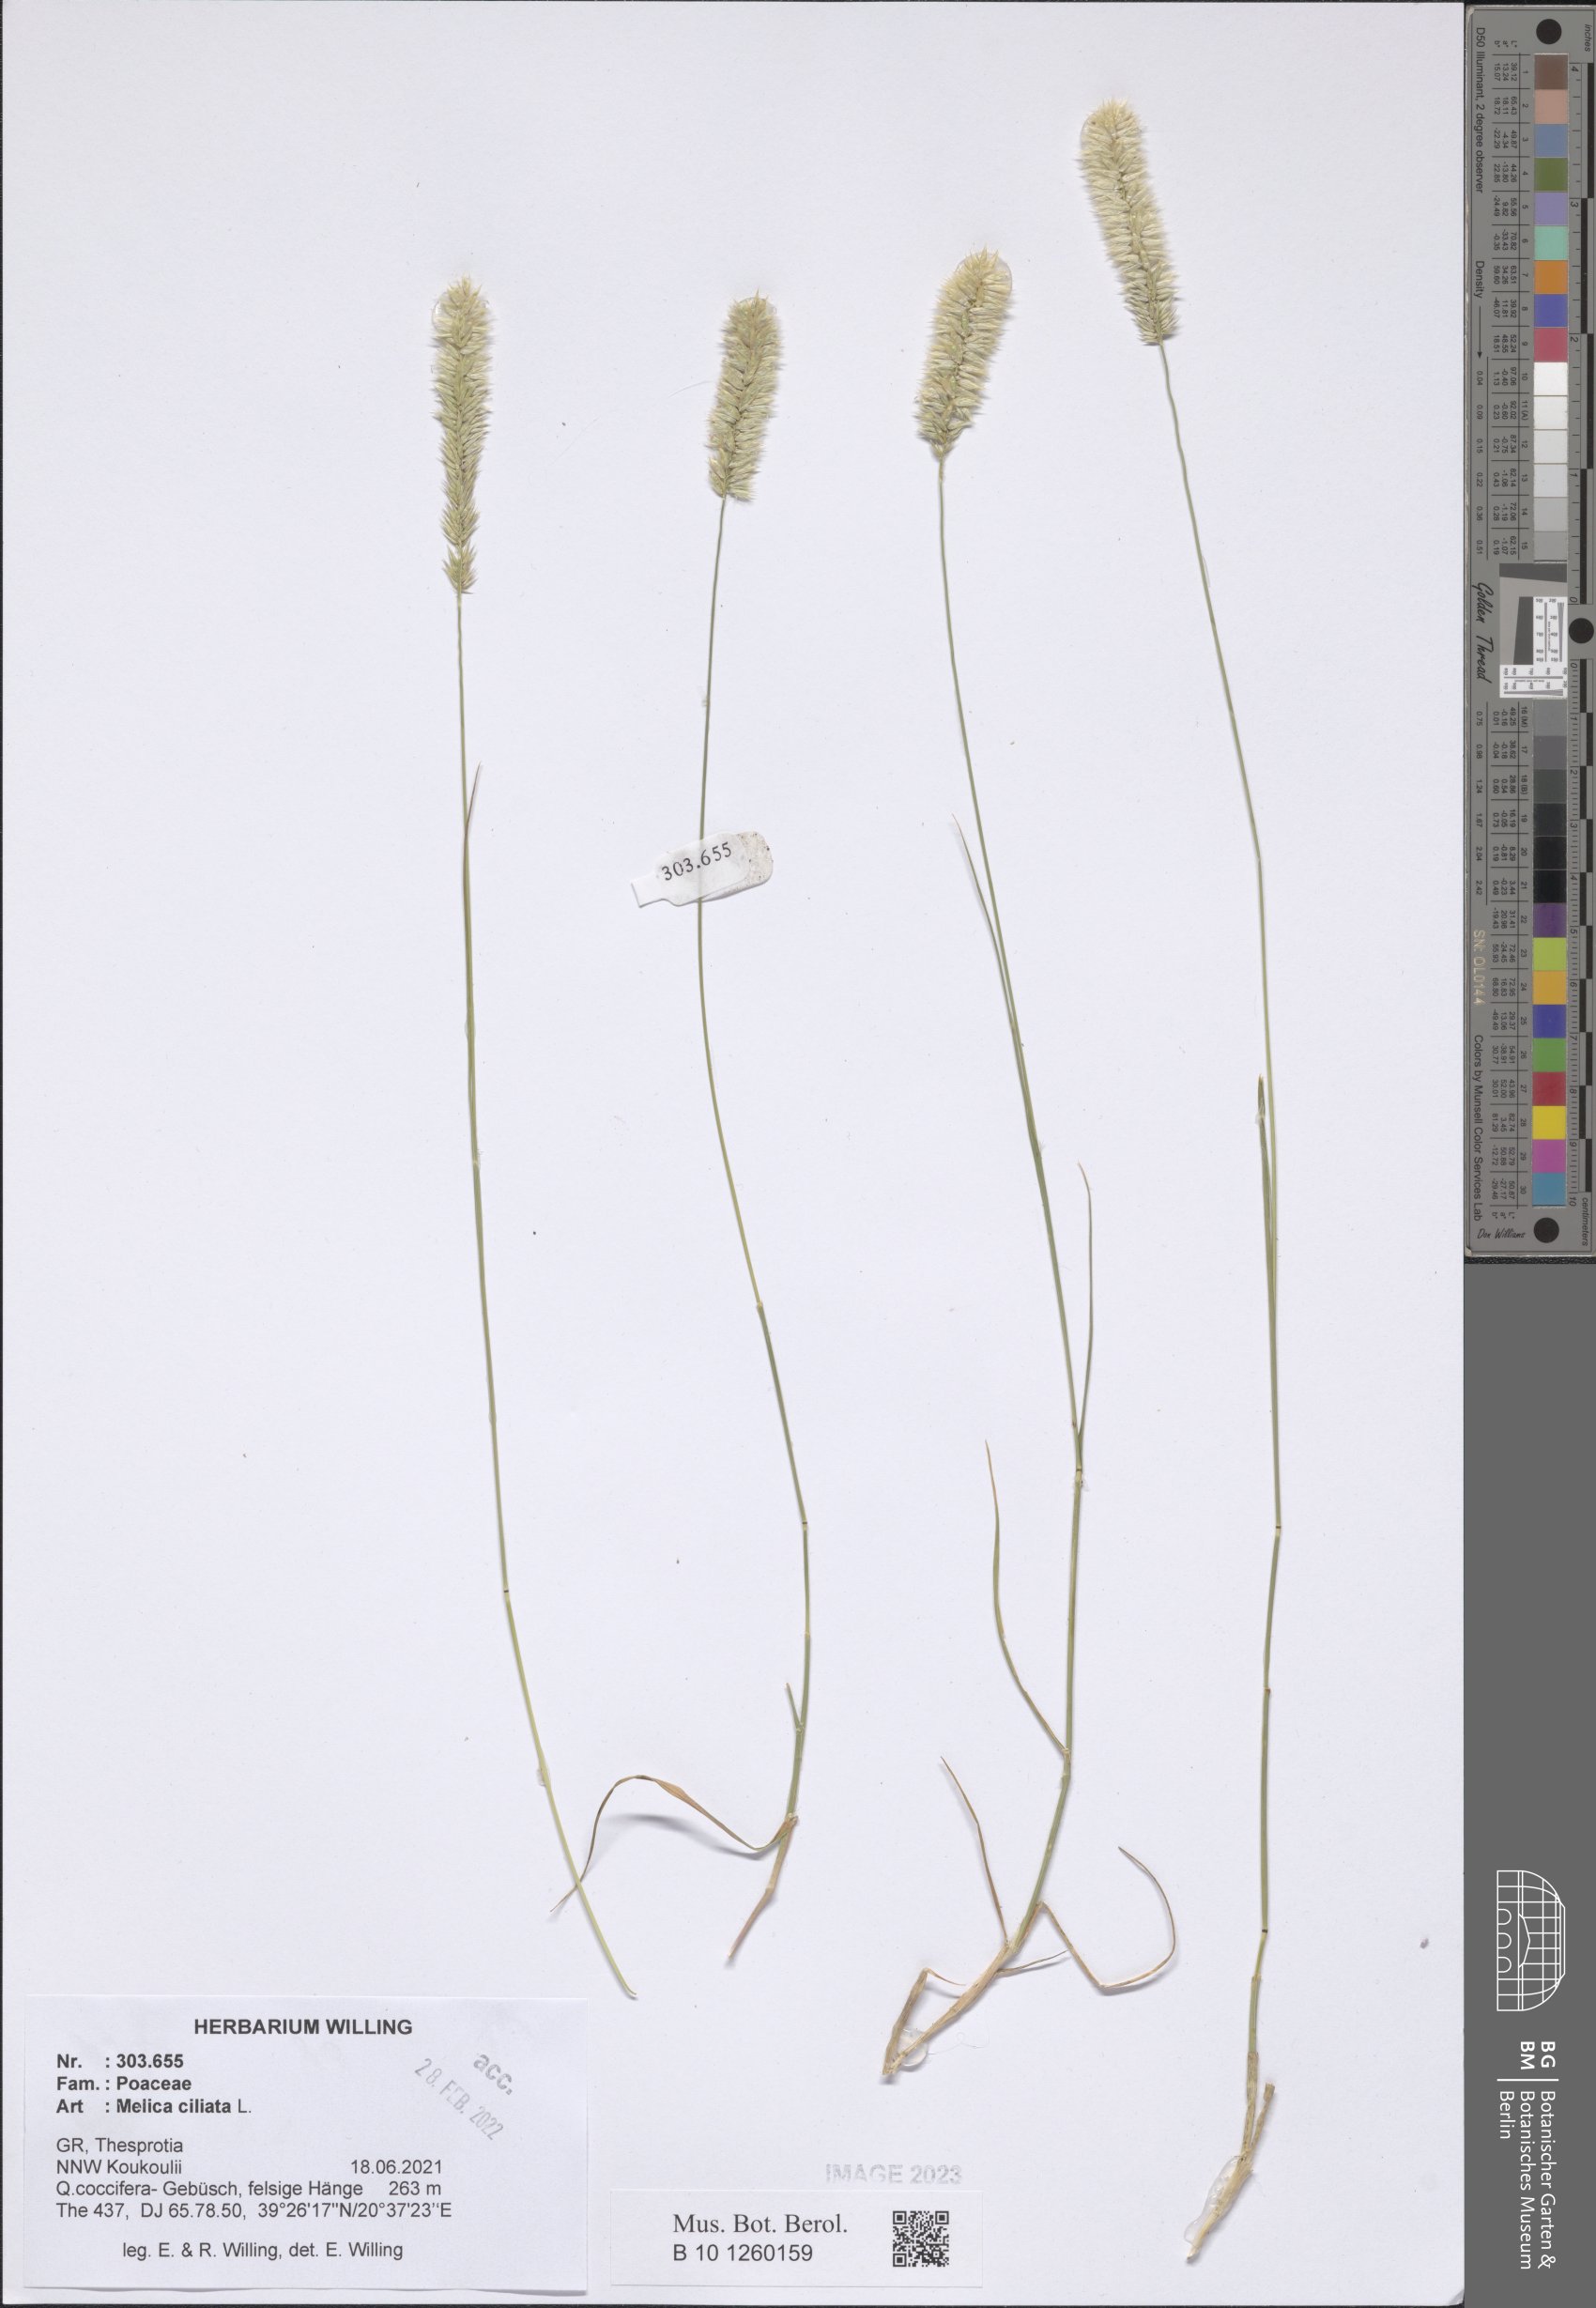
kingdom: Plantae
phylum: Tracheophyta
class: Liliopsida
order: Poales
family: Poaceae
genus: Melica
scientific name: Melica ciliata
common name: Hairy melicgrass
